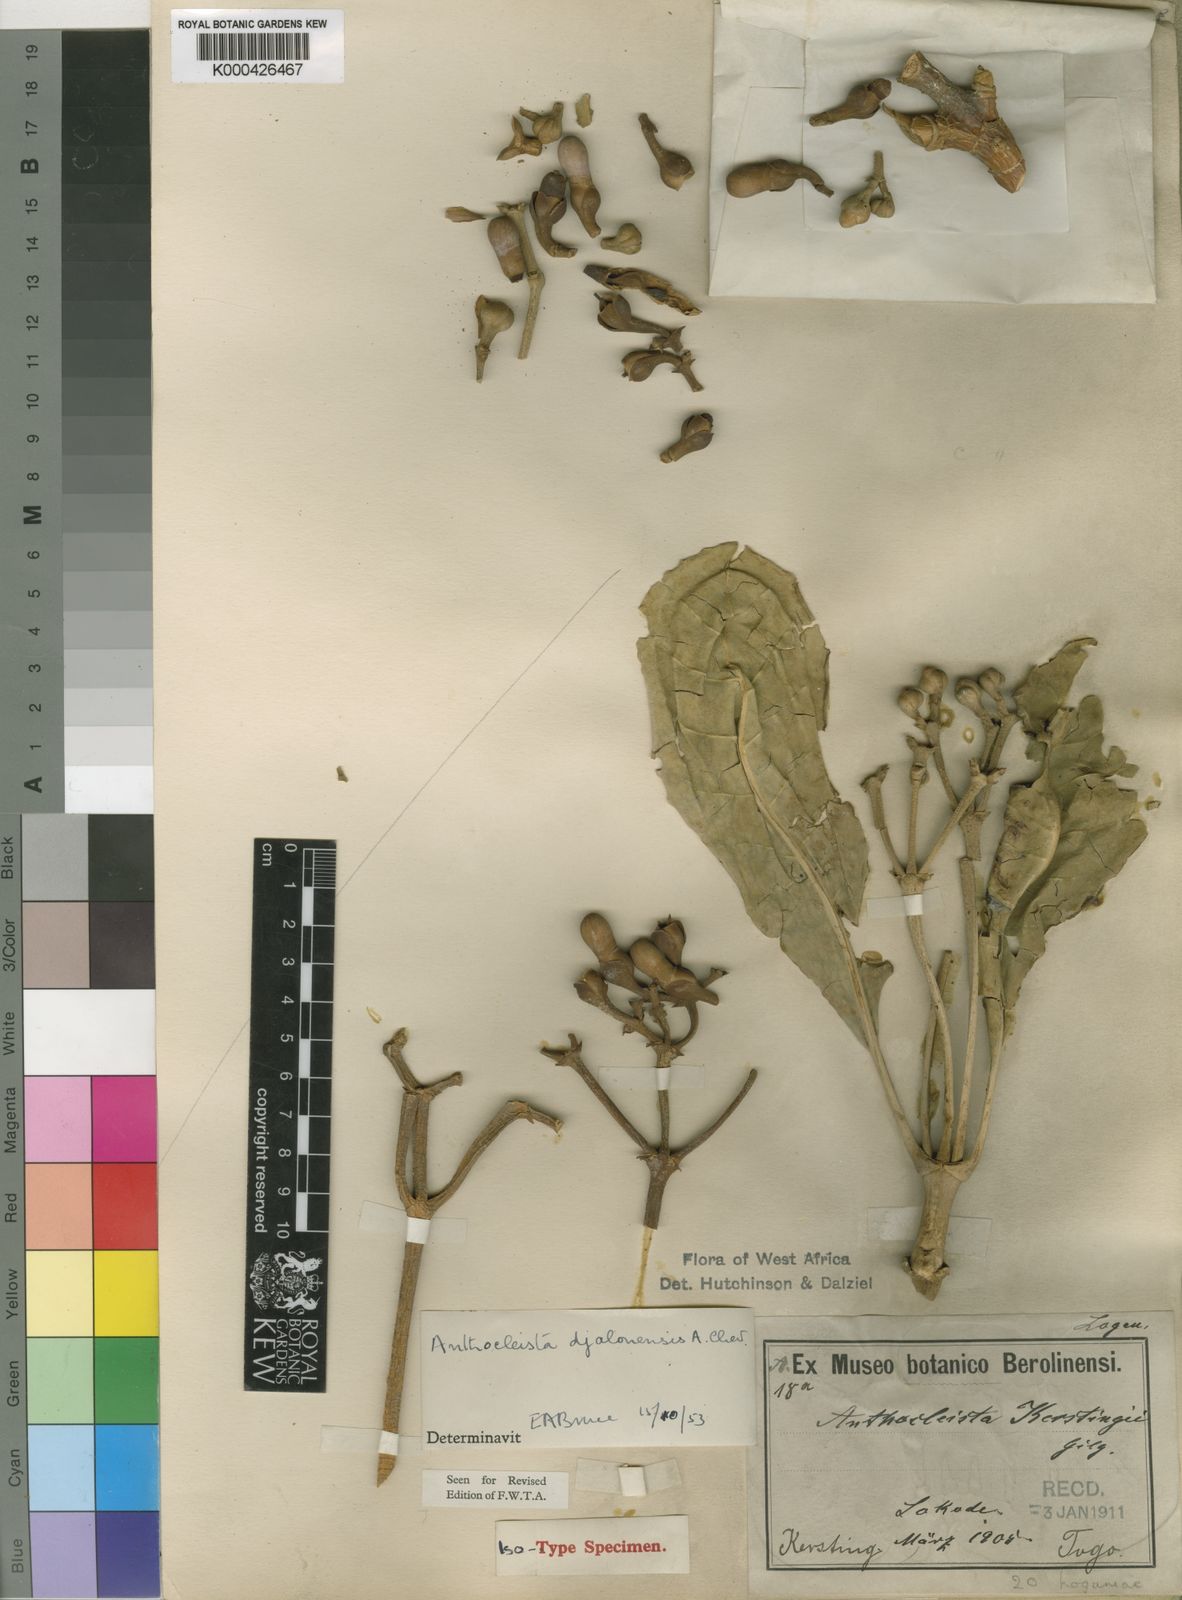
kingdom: Plantae
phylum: Tracheophyta
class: Magnoliopsida
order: Gentianales
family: Gentianaceae
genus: Anthocleista
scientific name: Anthocleista djalonensis
